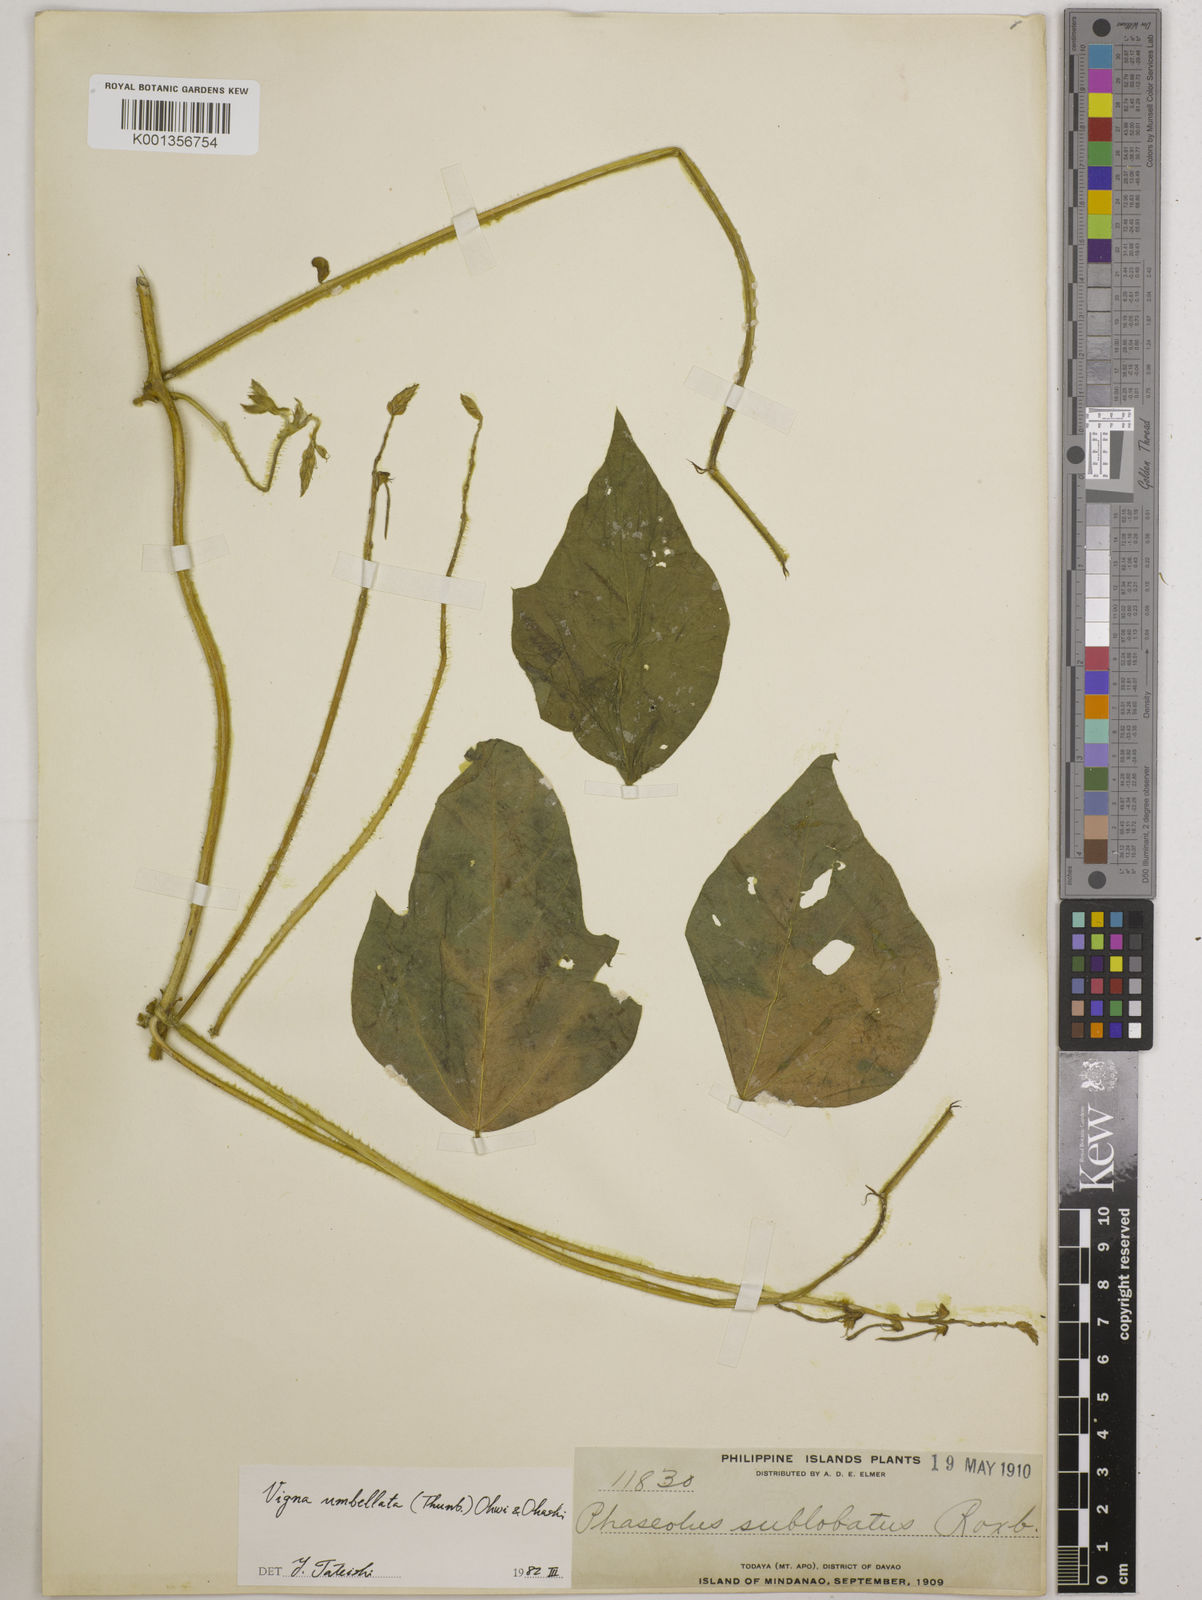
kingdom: Plantae
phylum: Tracheophyta
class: Magnoliopsida
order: Fabales
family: Fabaceae
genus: Vigna
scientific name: Vigna umbellata
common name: Oriental-bean
